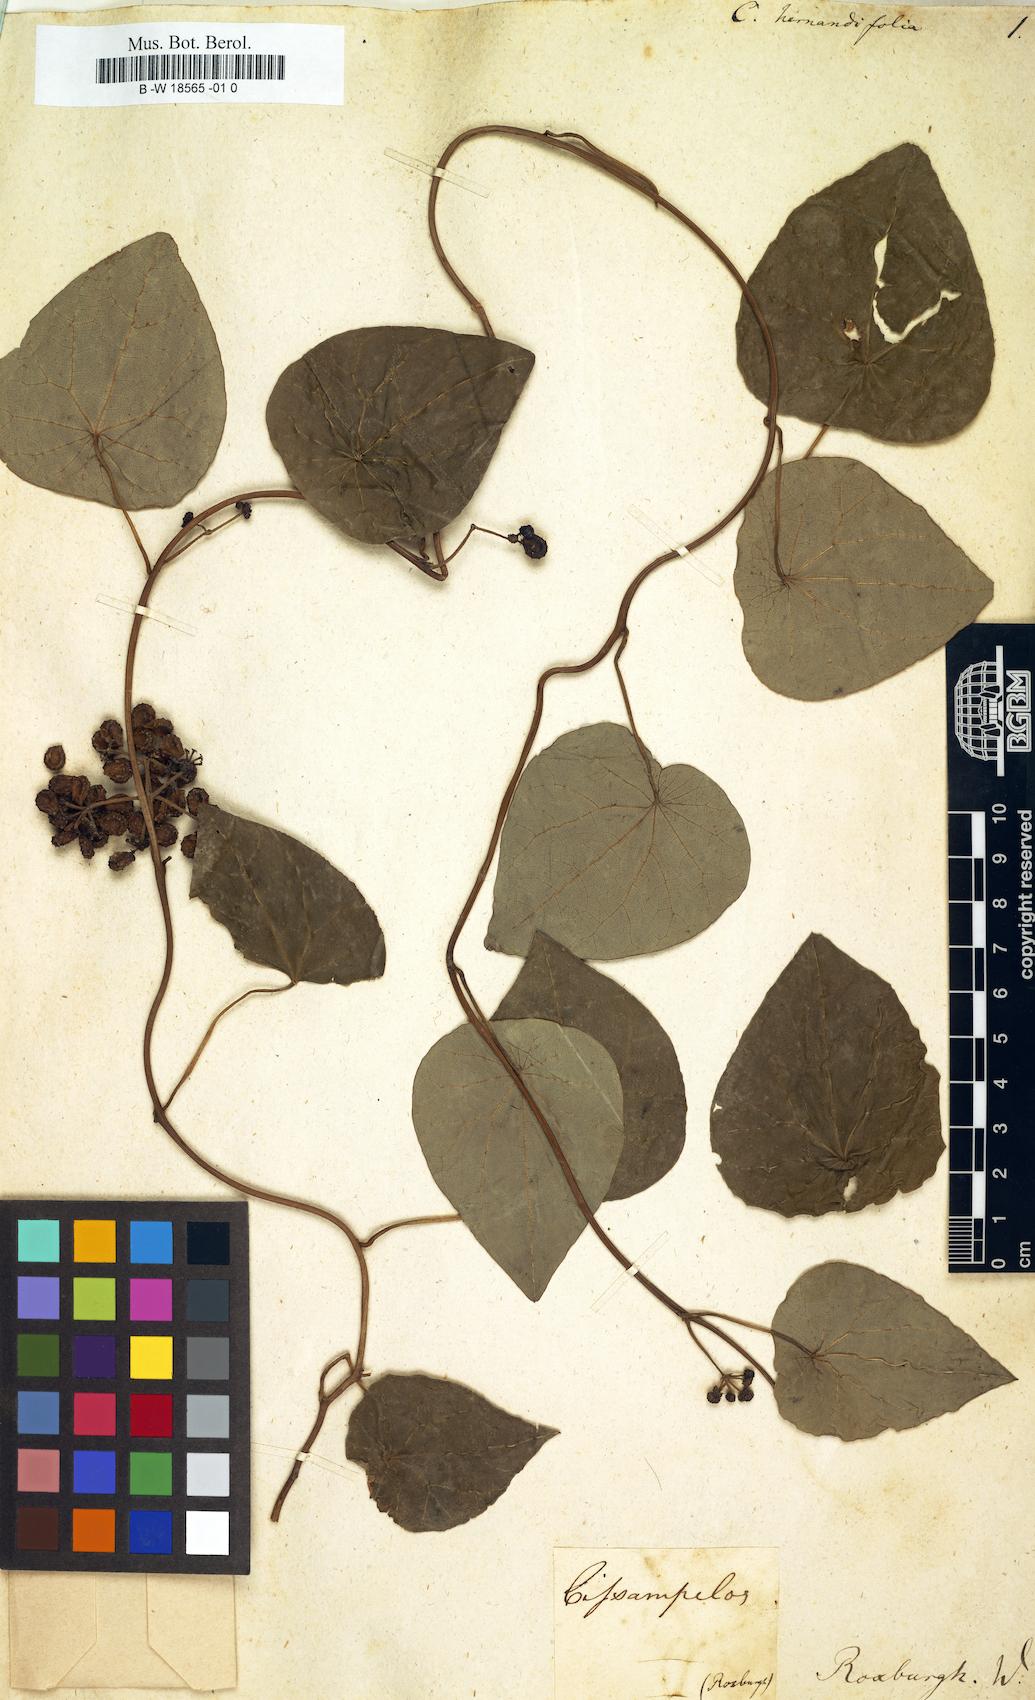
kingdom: Plantae
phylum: Tracheophyta
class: Magnoliopsida
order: Ranunculales
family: Menispermaceae
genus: Stephania
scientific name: Stephania japonica
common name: Snake vine
